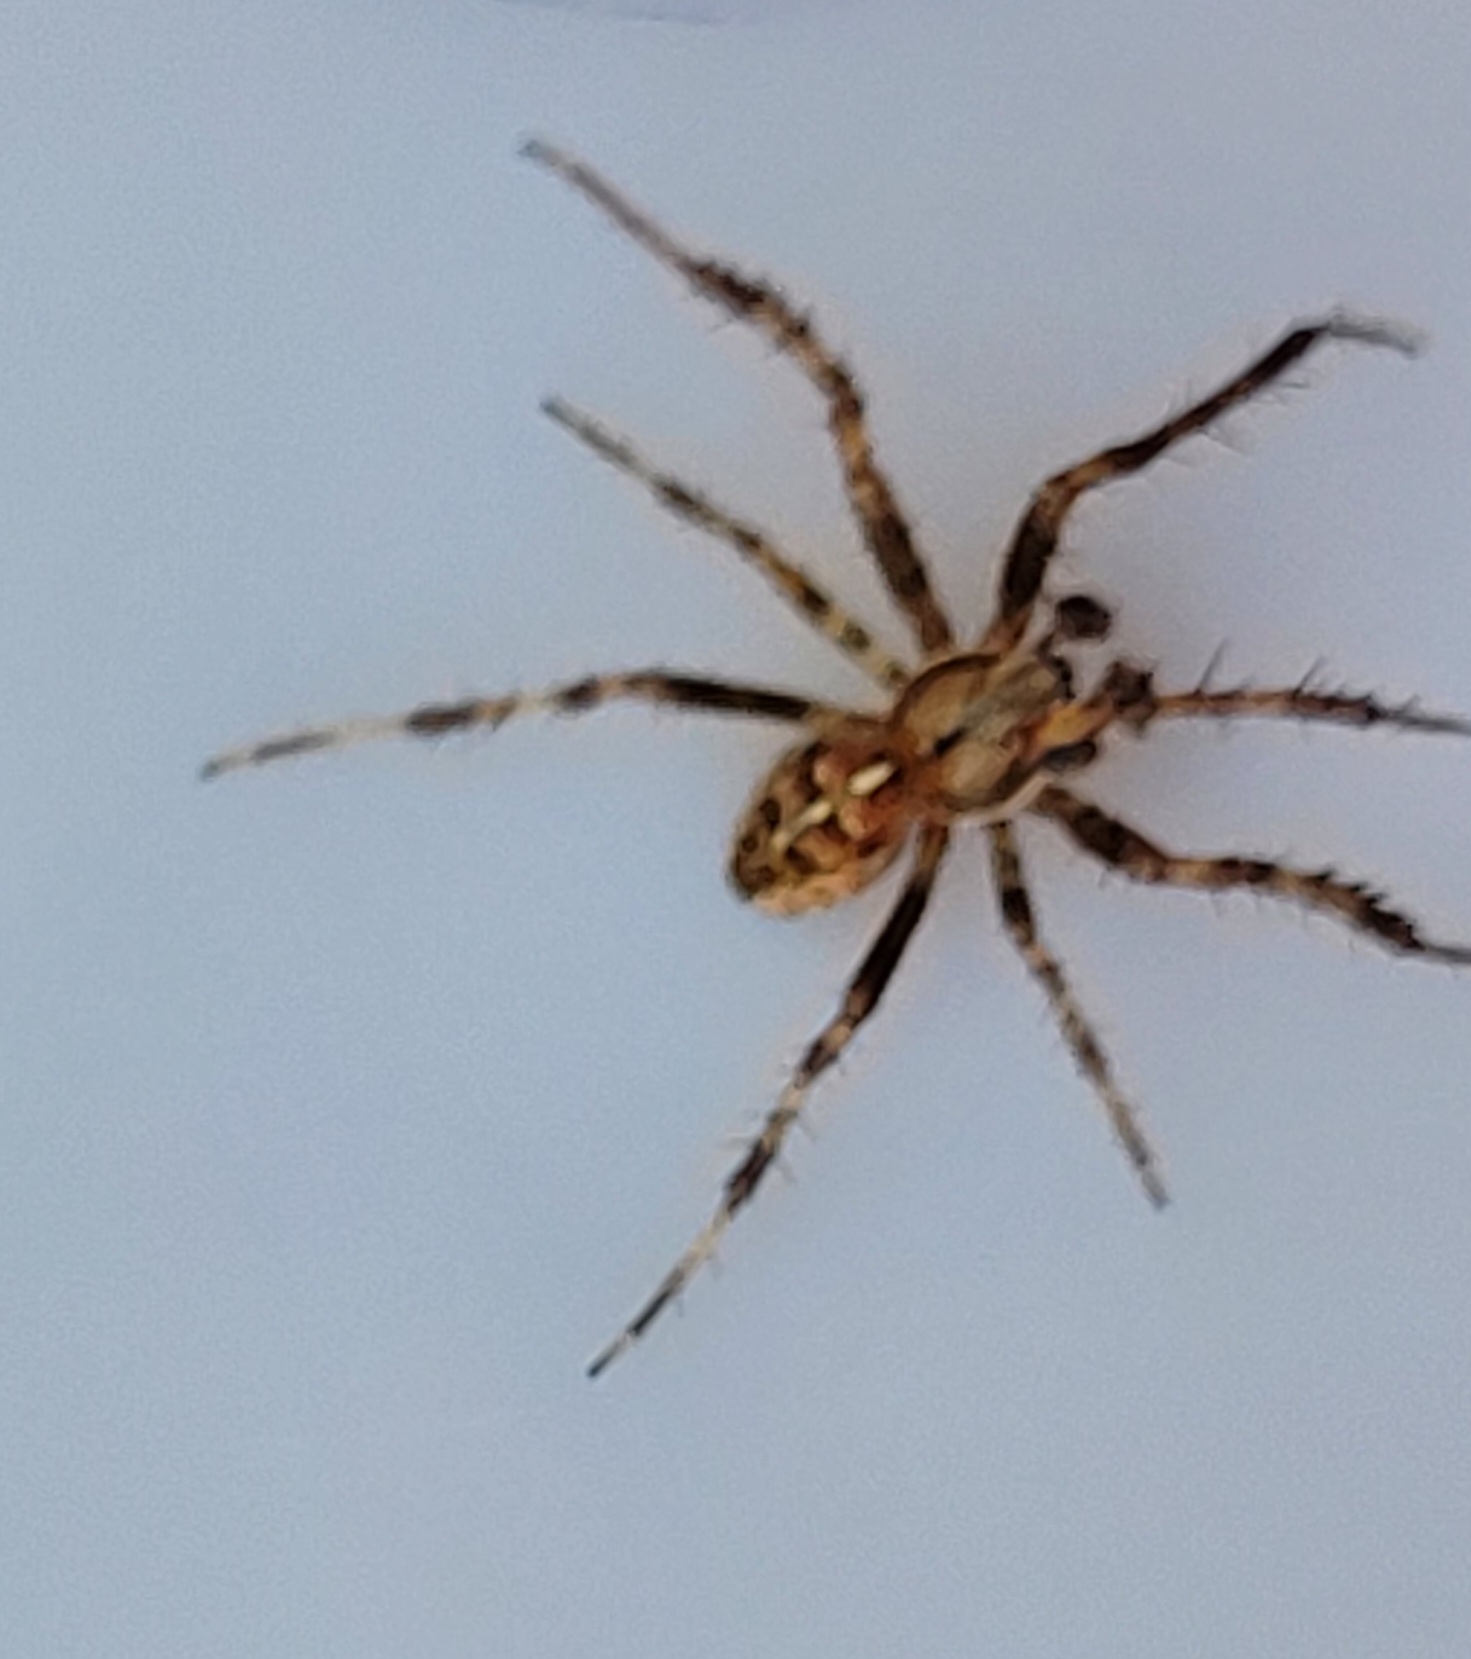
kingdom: Animalia
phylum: Arthropoda
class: Arachnida
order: Araneae
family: Araneidae
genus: Araneus
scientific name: Araneus diadematus
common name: Korsedderkop
